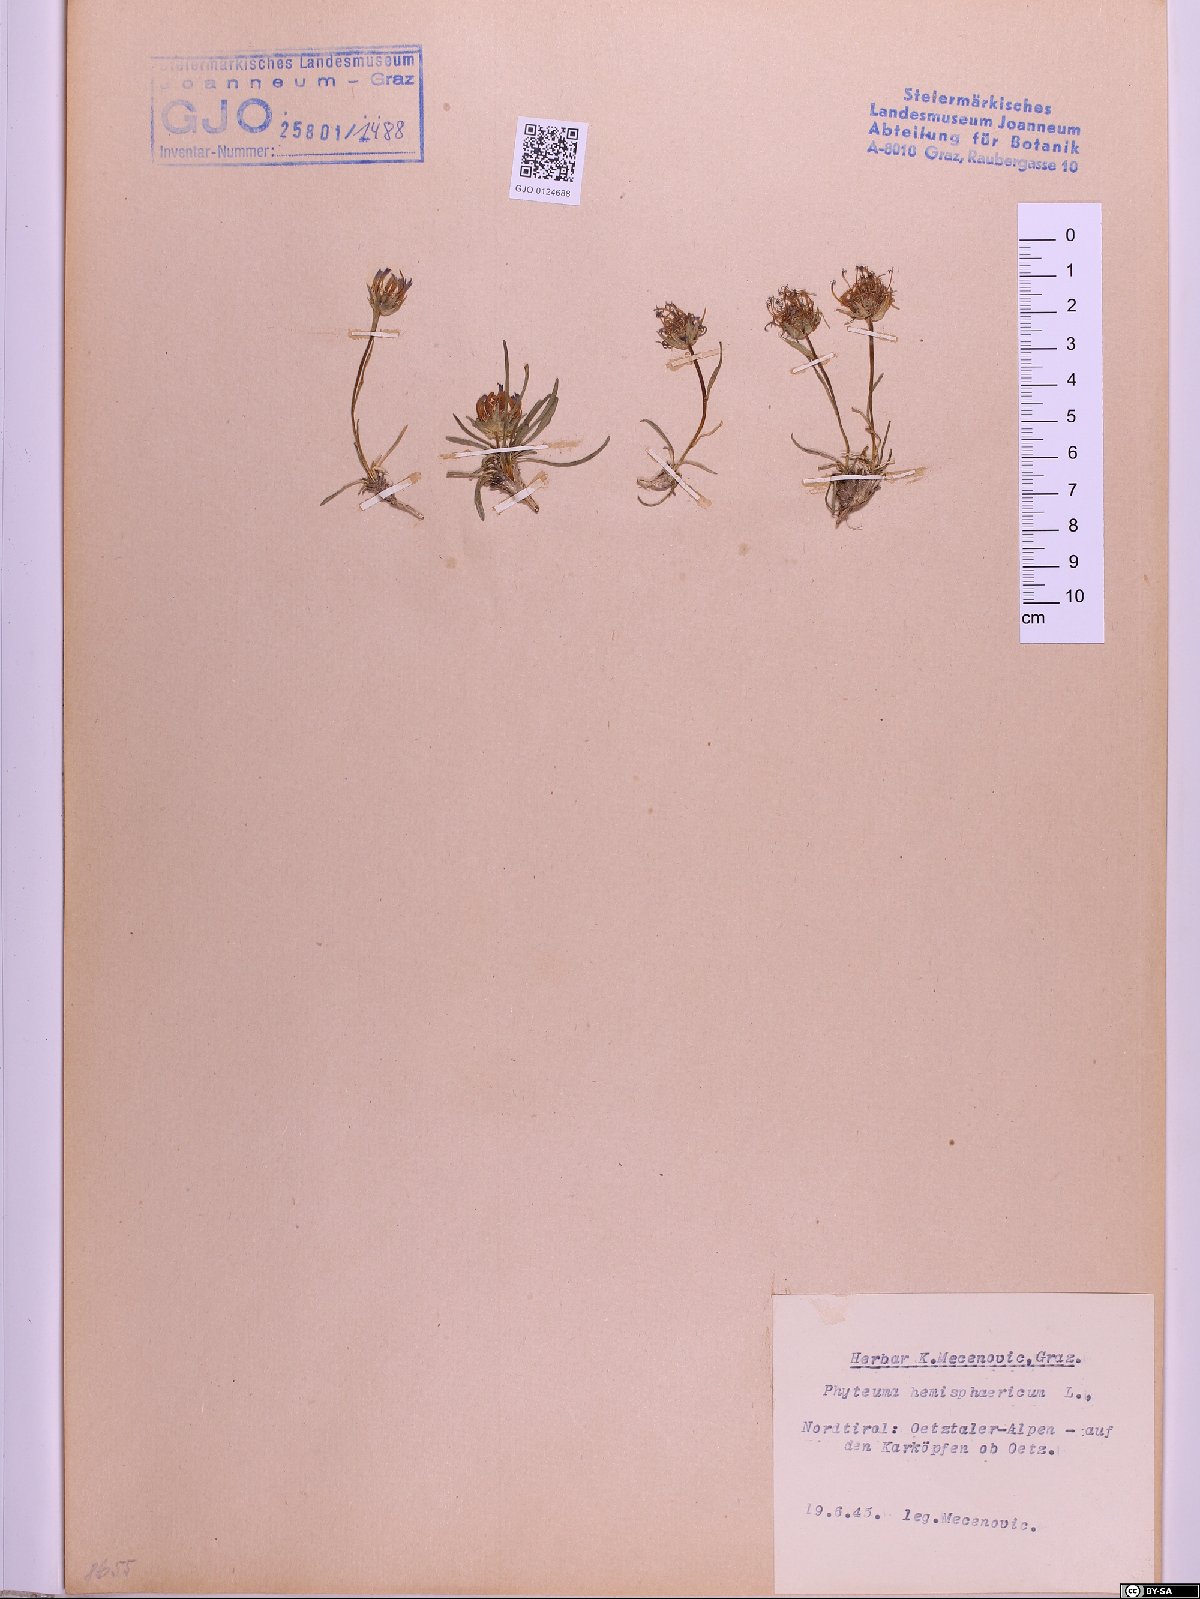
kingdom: Plantae
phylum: Tracheophyta
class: Magnoliopsida
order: Asterales
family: Campanulaceae
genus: Phyteuma
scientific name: Phyteuma hemisphaericum
